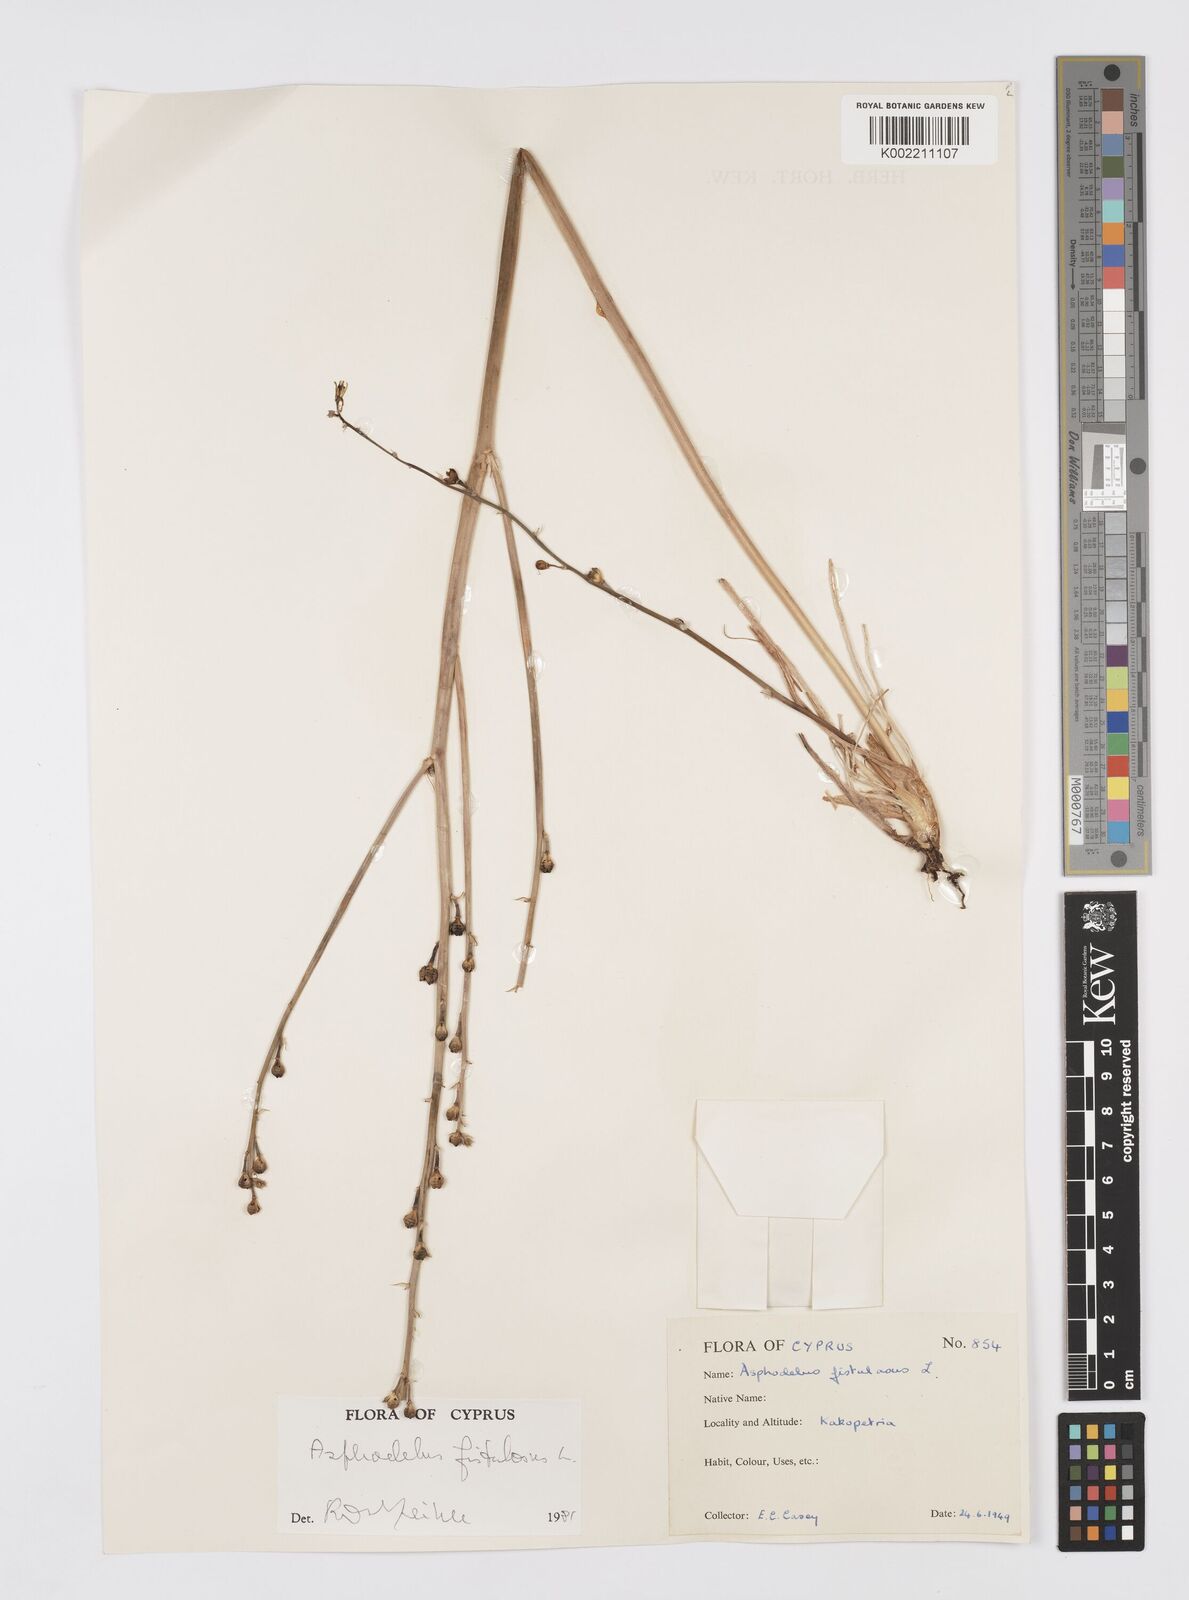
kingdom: Plantae
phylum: Tracheophyta
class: Liliopsida
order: Asparagales
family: Asphodelaceae
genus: Asphodelus
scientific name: Asphodelus fistulosus
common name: Onionweed
